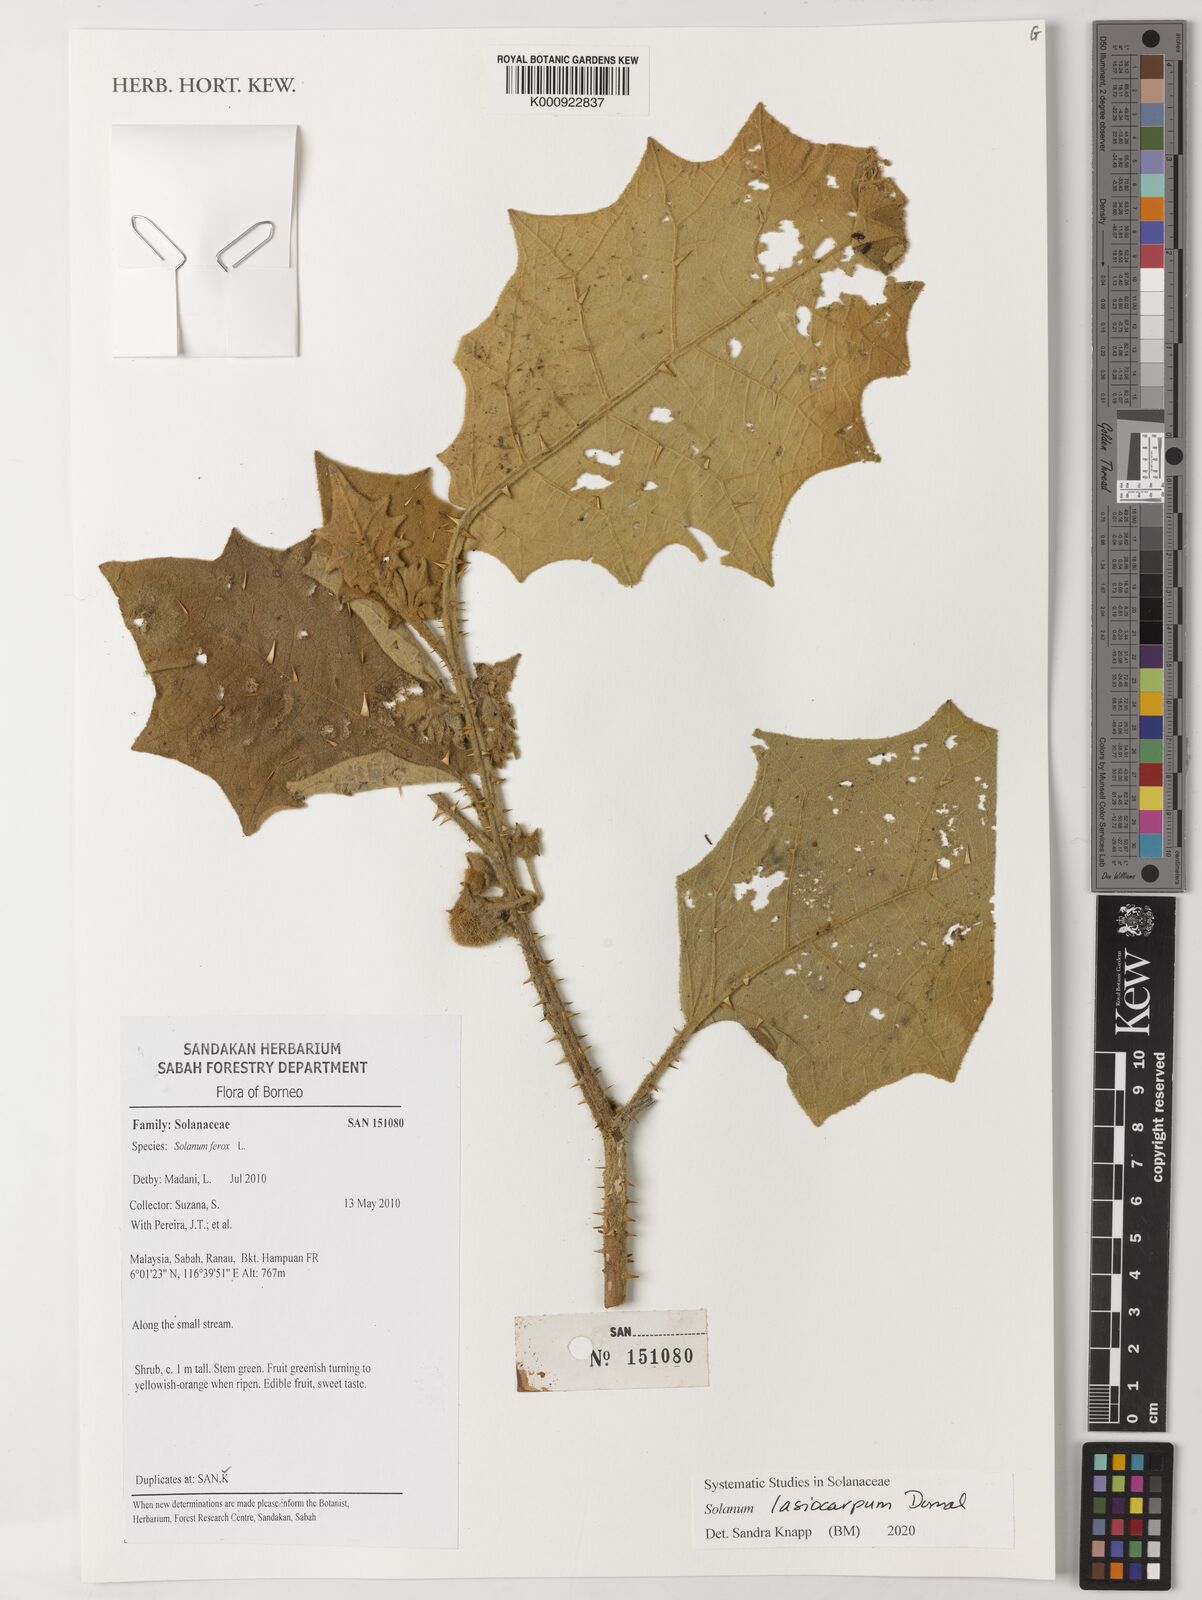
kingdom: Plantae
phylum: Tracheophyta
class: Magnoliopsida
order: Solanales
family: Solanaceae
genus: Solanum
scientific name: Solanum lasiocarpum
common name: Indian nightshade
